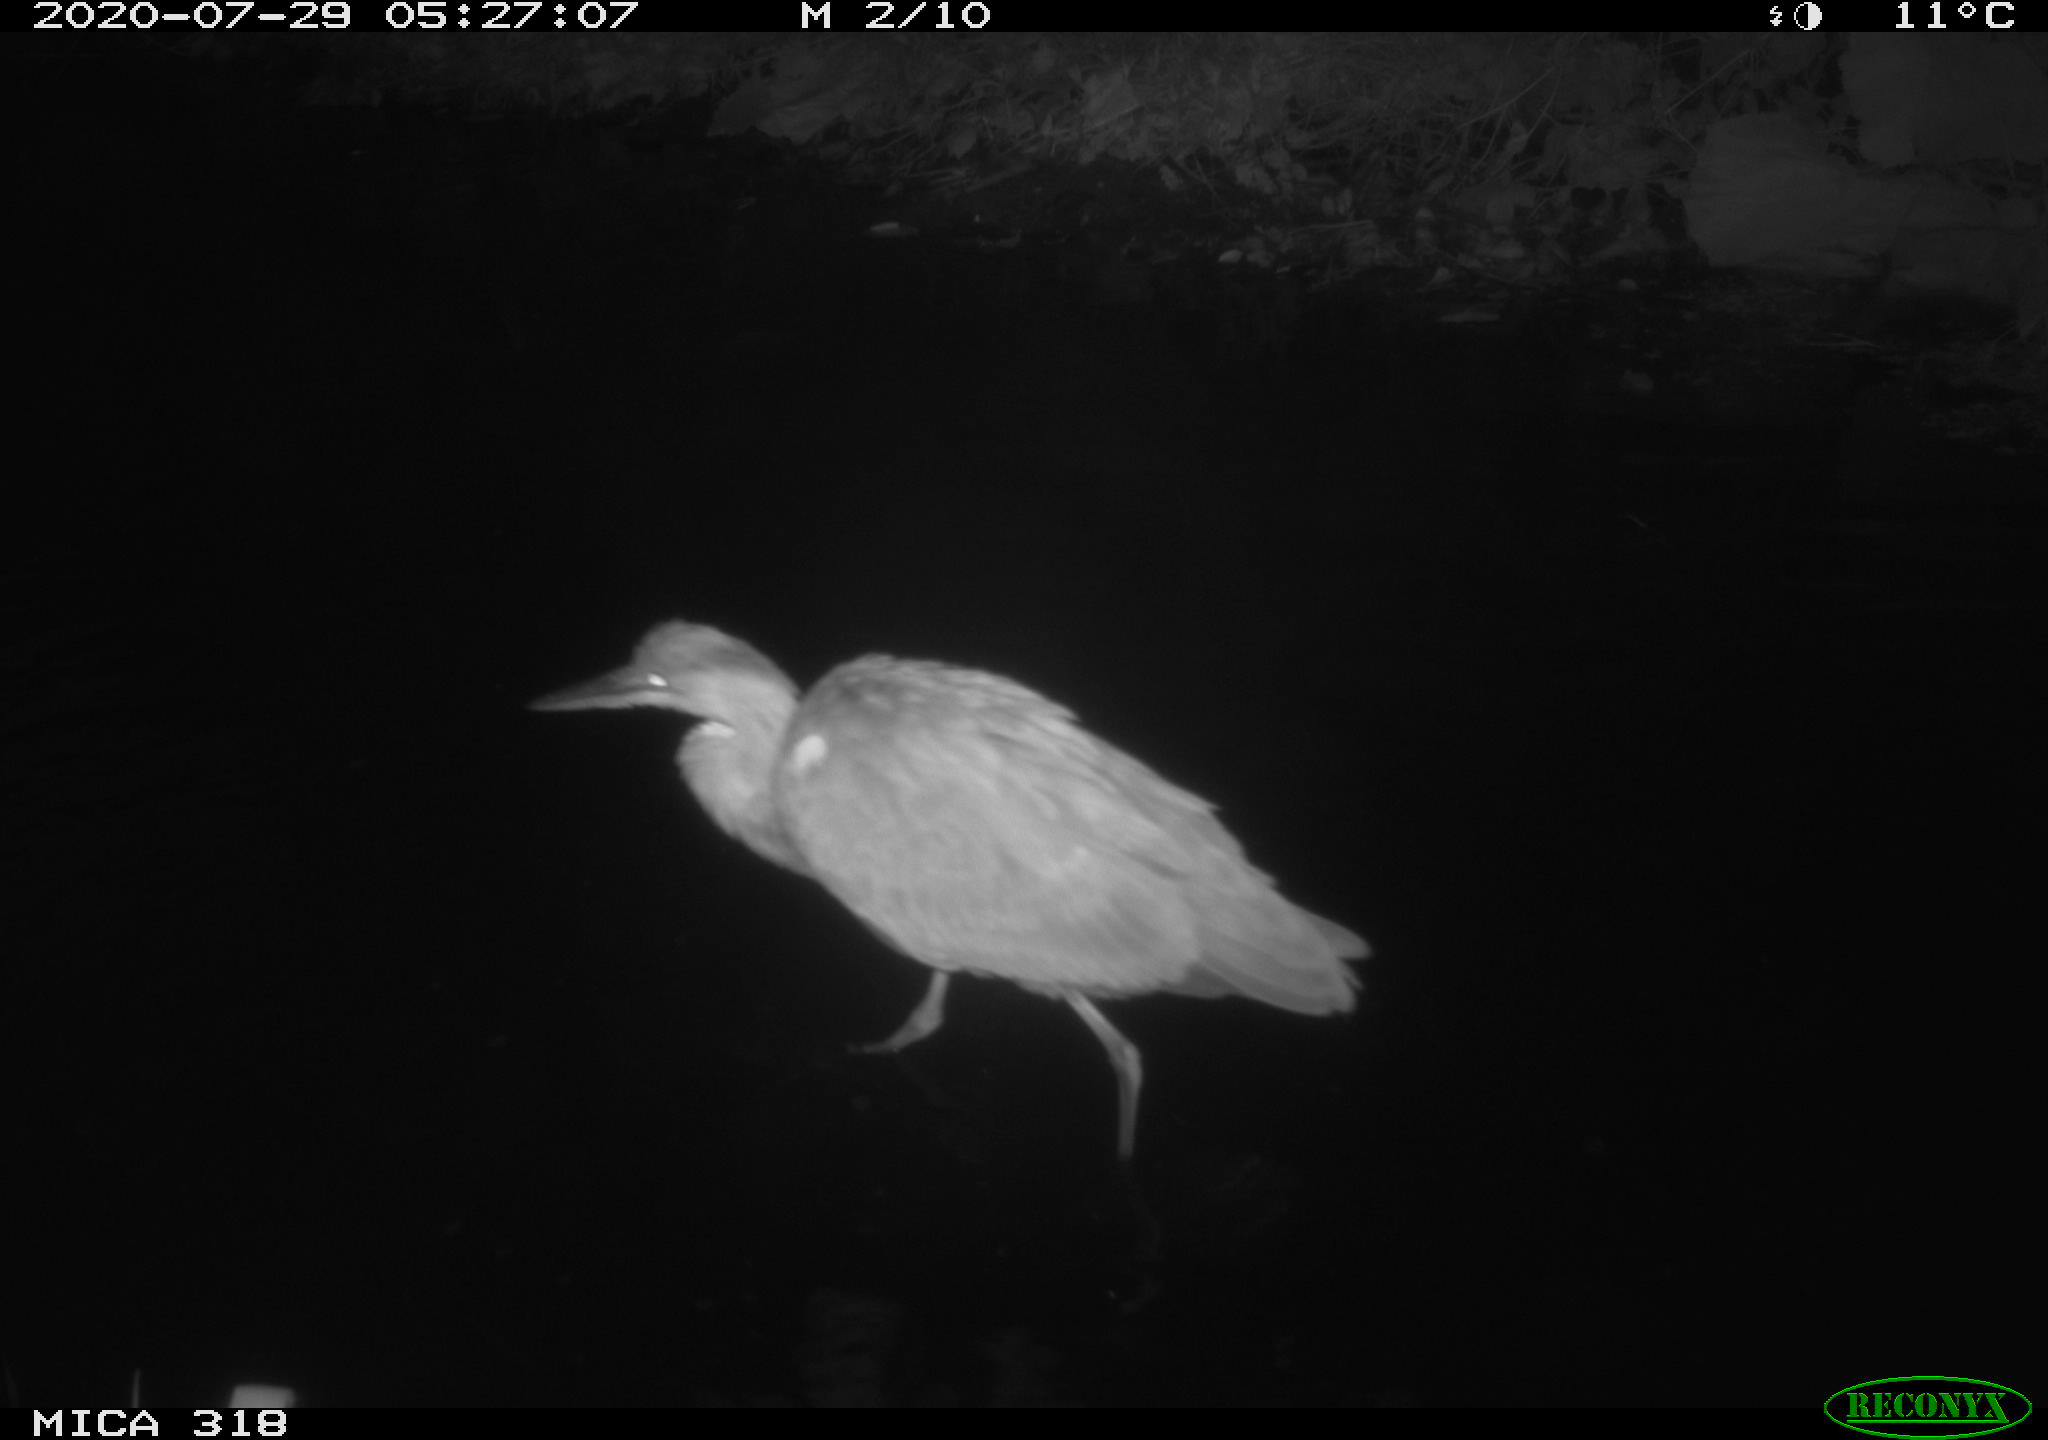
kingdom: Animalia
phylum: Chordata
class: Aves
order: Pelecaniformes
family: Ardeidae
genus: Ardea
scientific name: Ardea cinerea
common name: Grey heron
